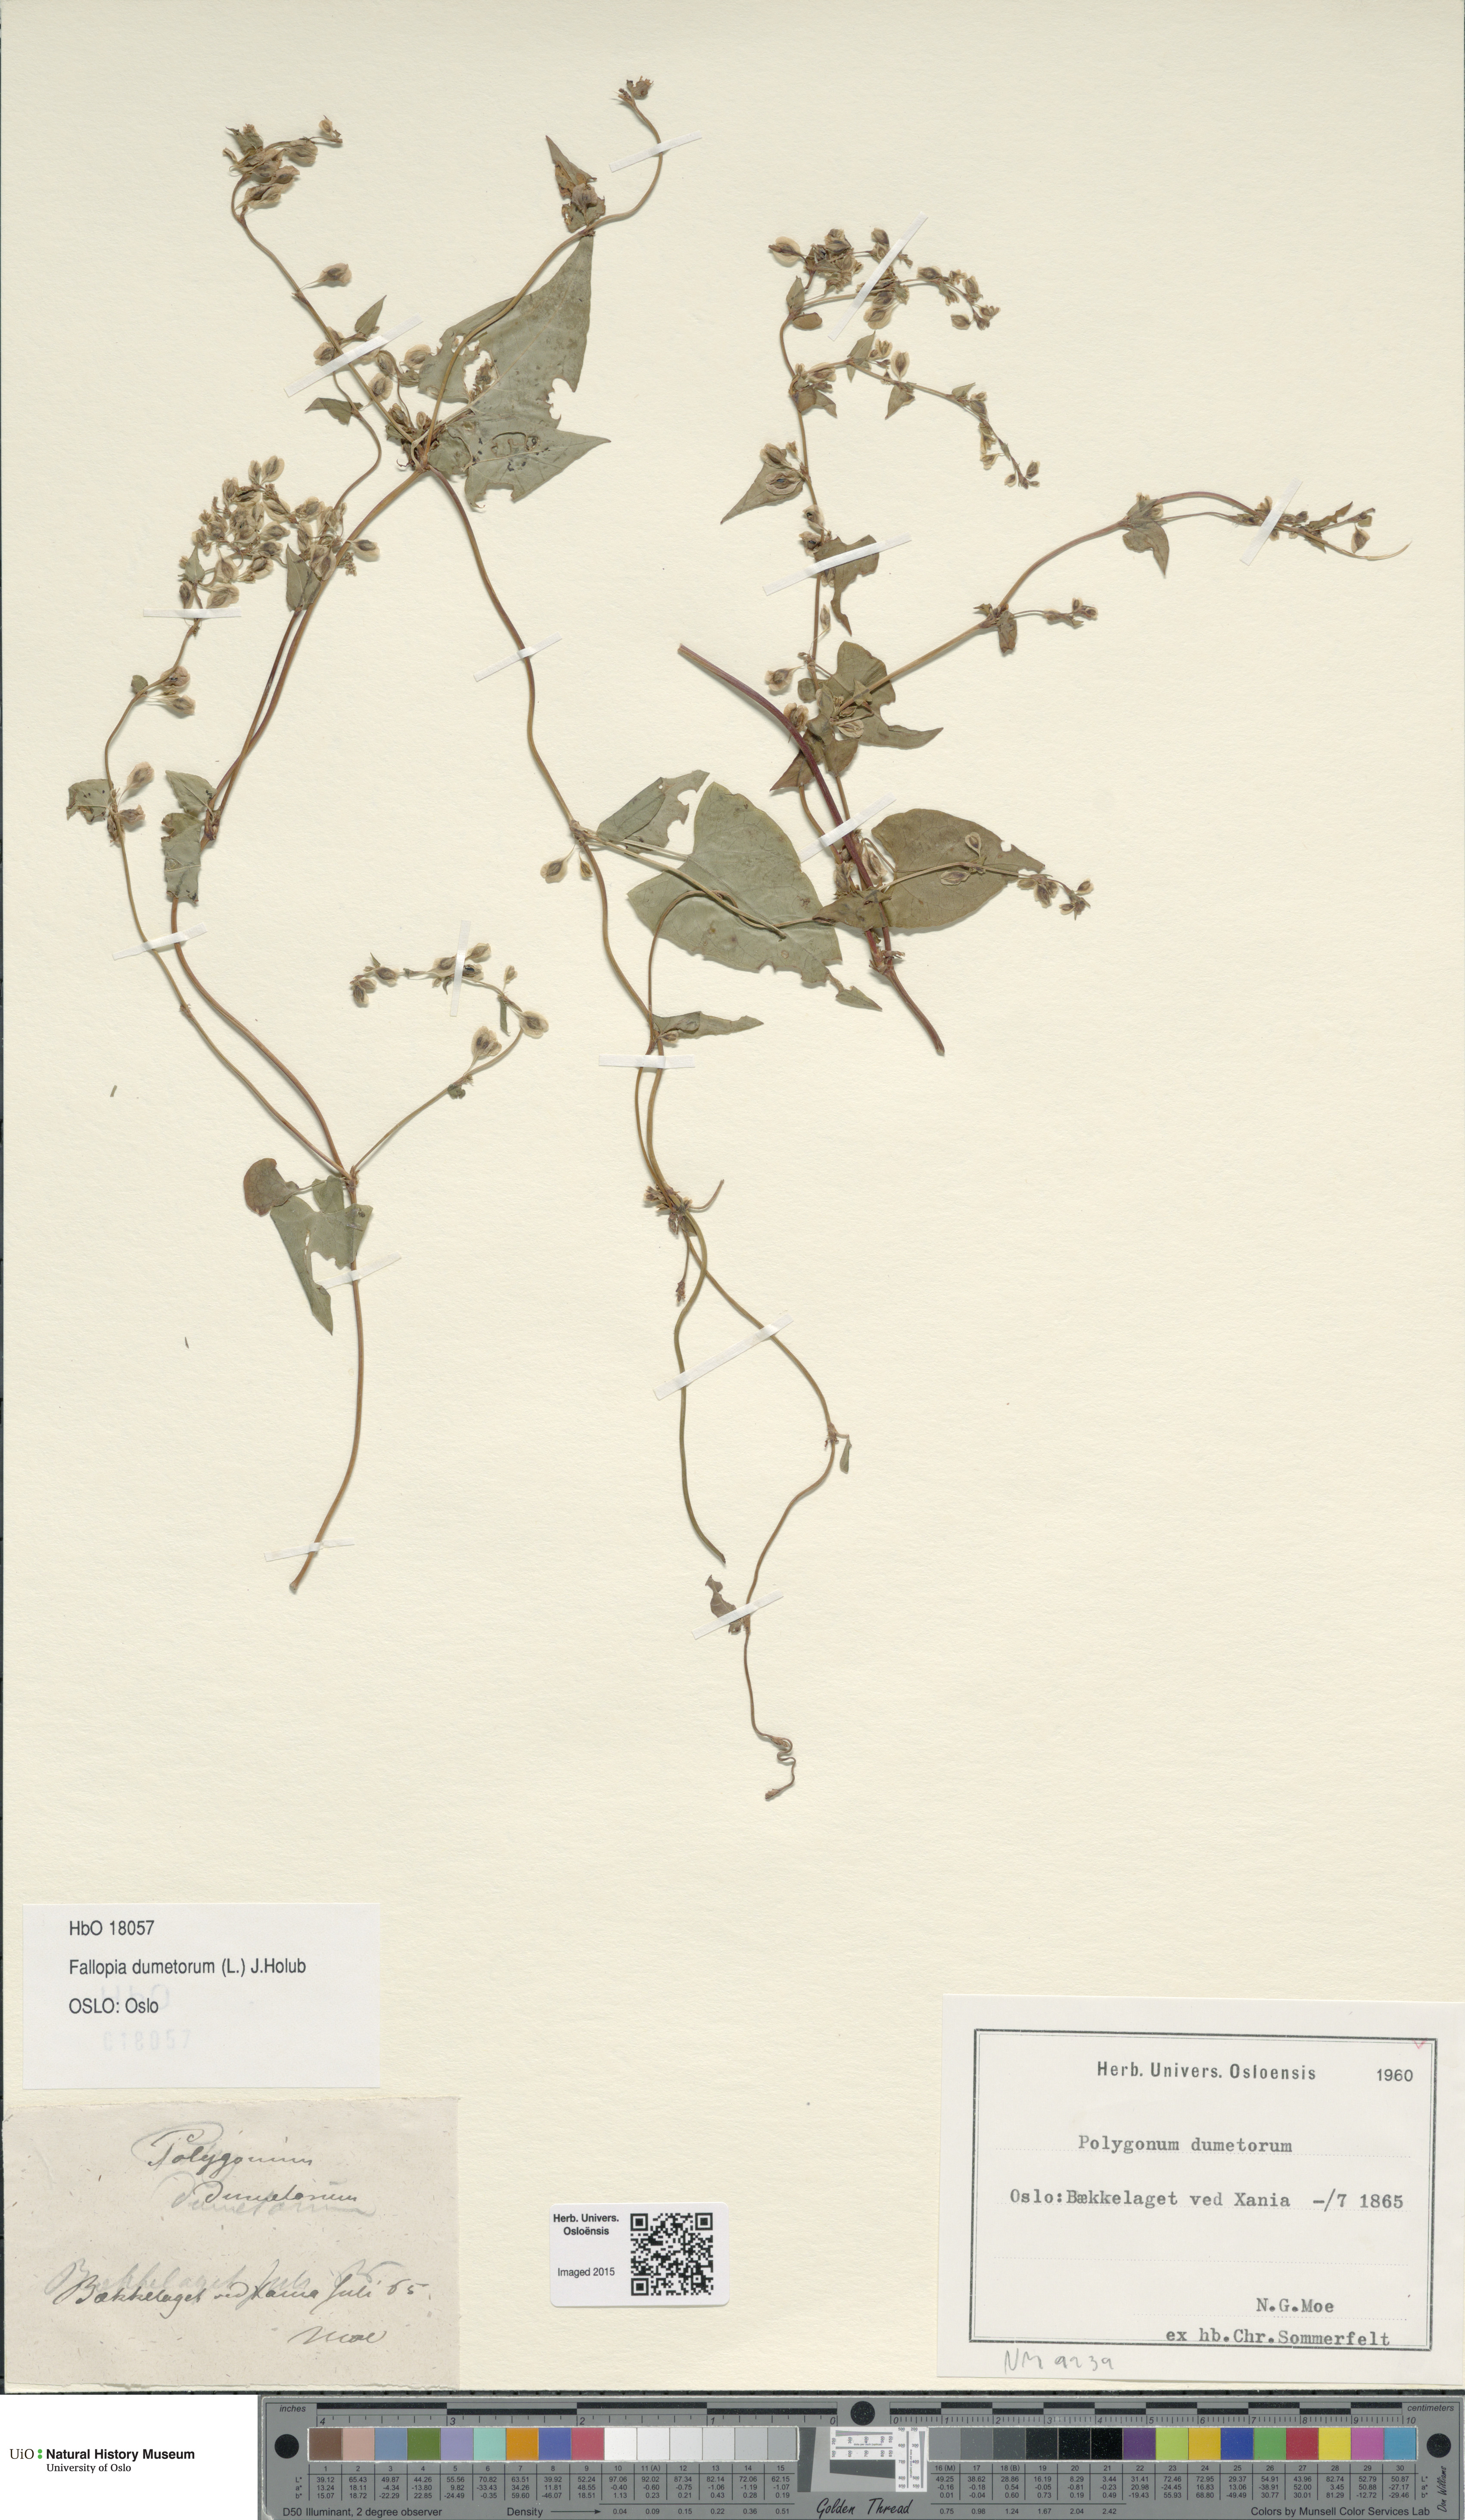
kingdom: Plantae
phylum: Tracheophyta
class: Magnoliopsida
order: Caryophyllales
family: Polygonaceae
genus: Fallopia
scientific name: Fallopia dumetorum
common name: Copse-bindweed
